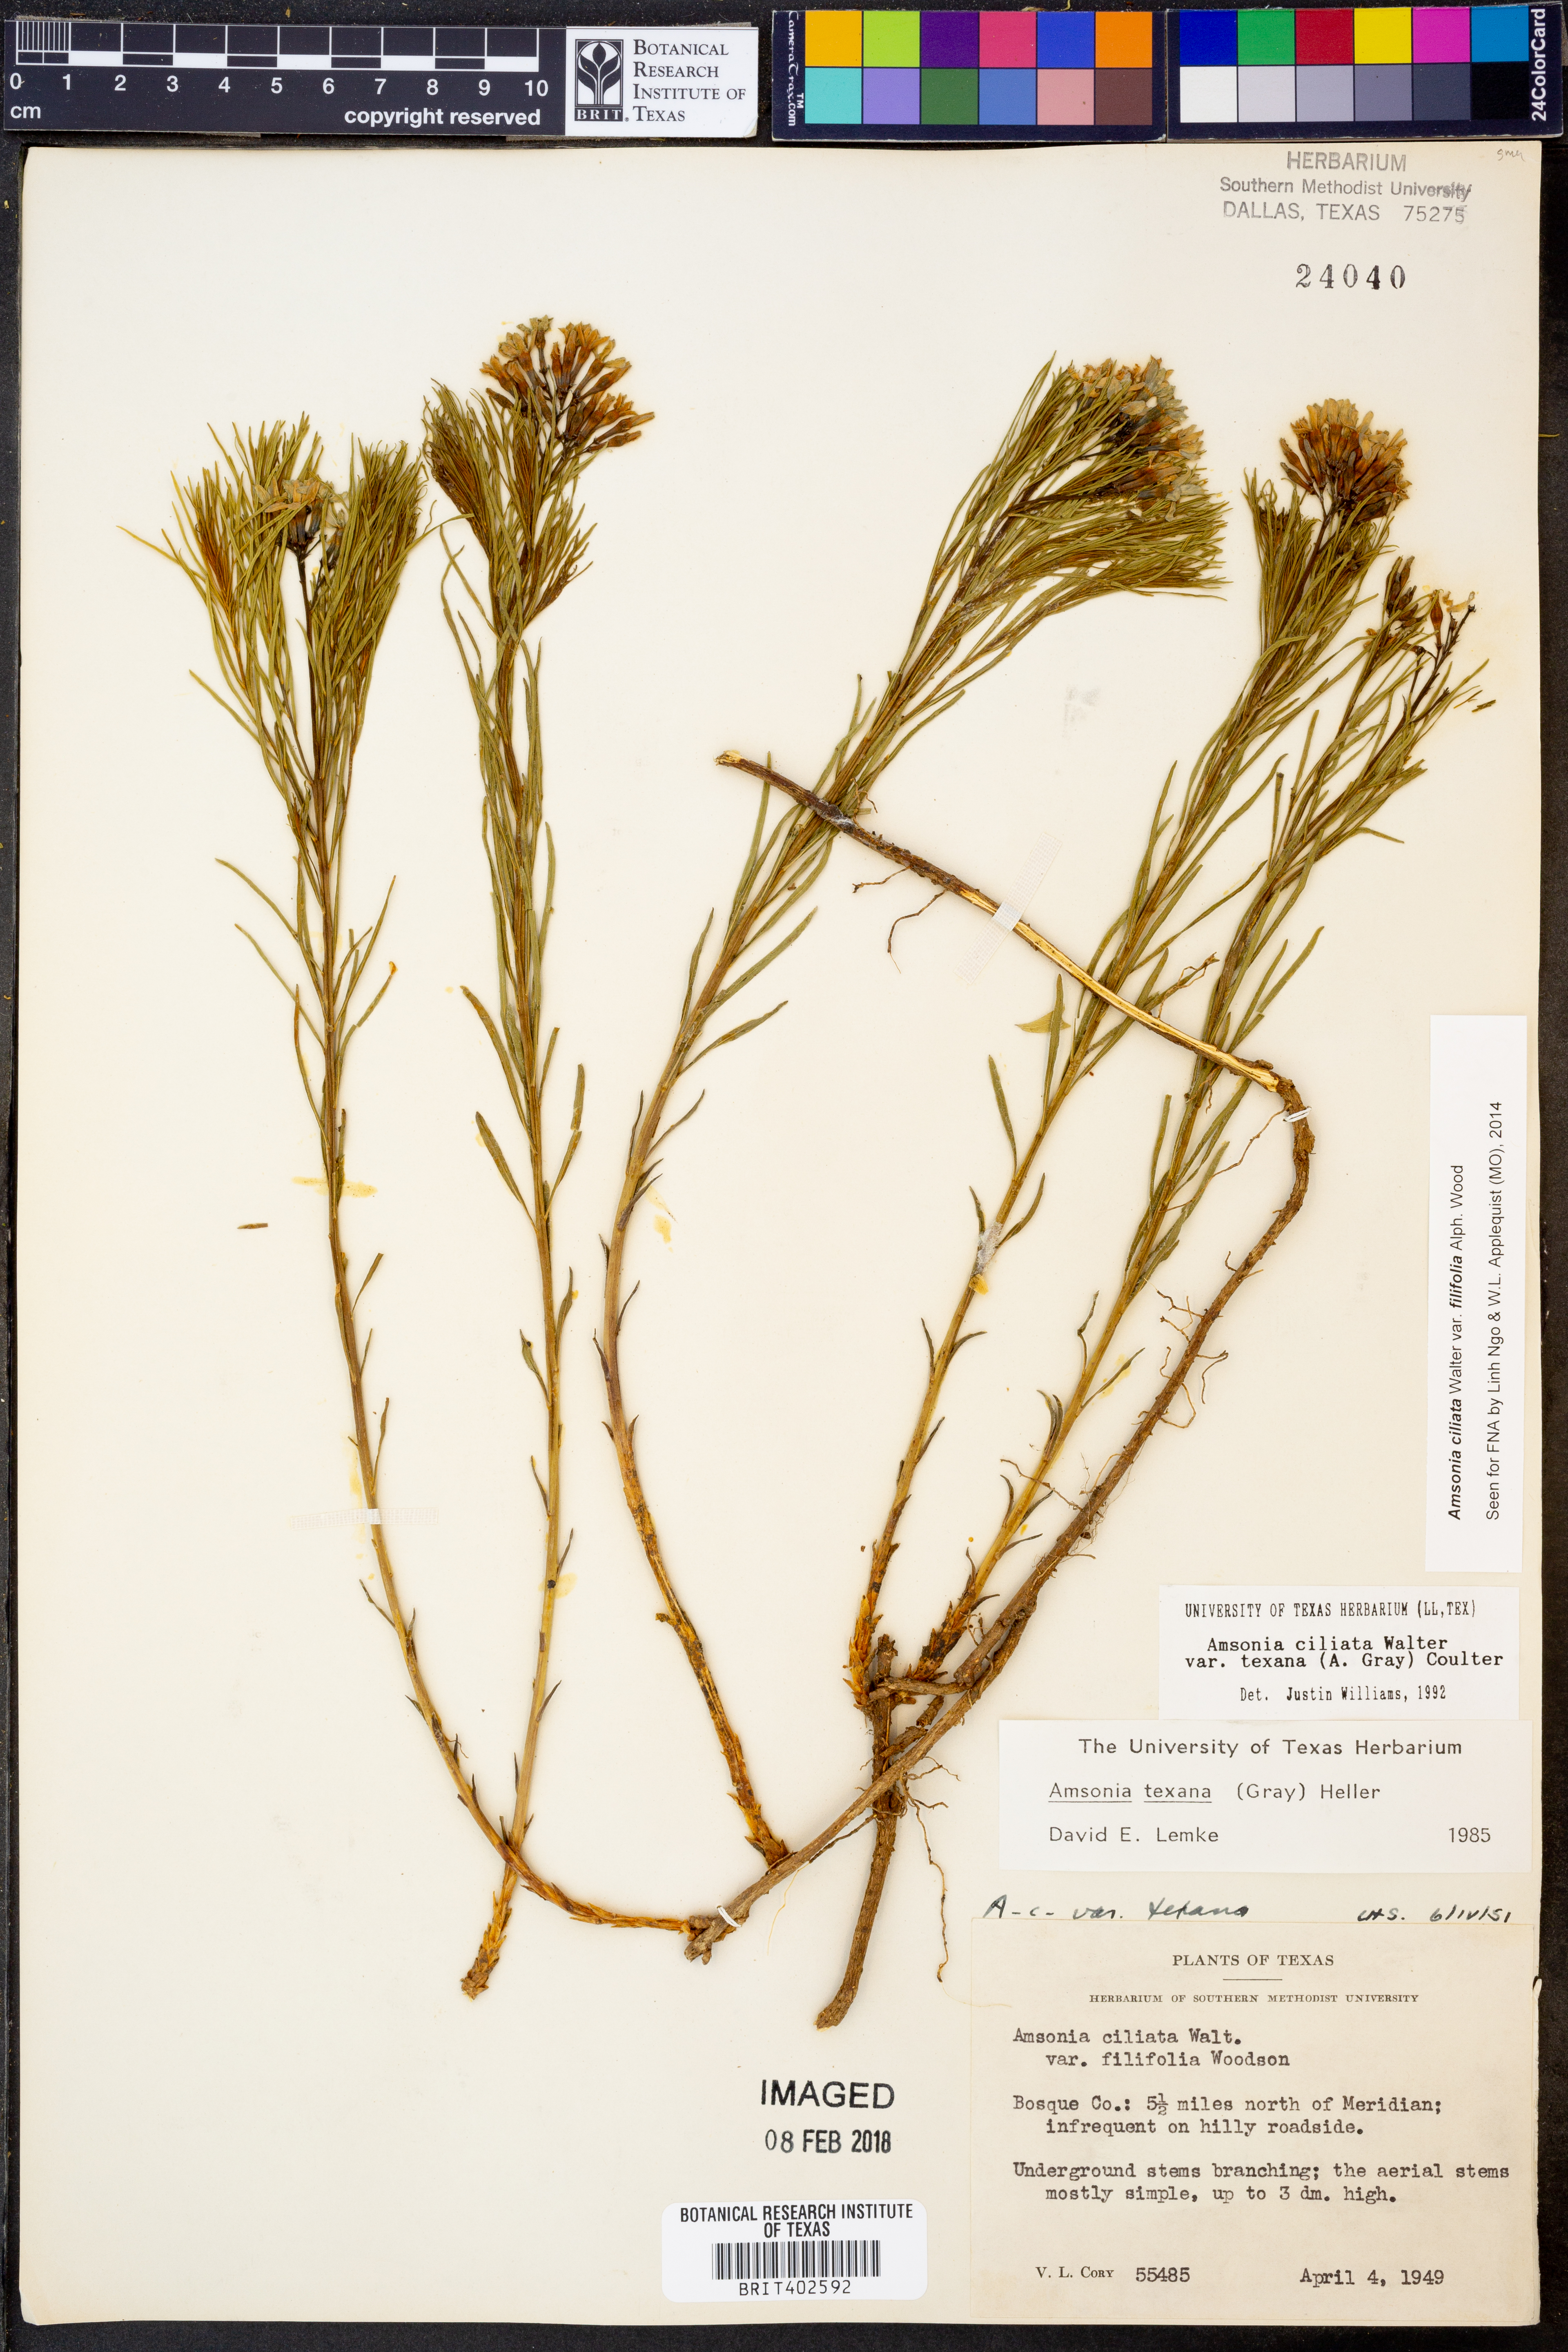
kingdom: Plantae
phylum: Tracheophyta
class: Magnoliopsida
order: Gentianales
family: Apocynaceae
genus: Amsonia
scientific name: Amsonia ciliata
